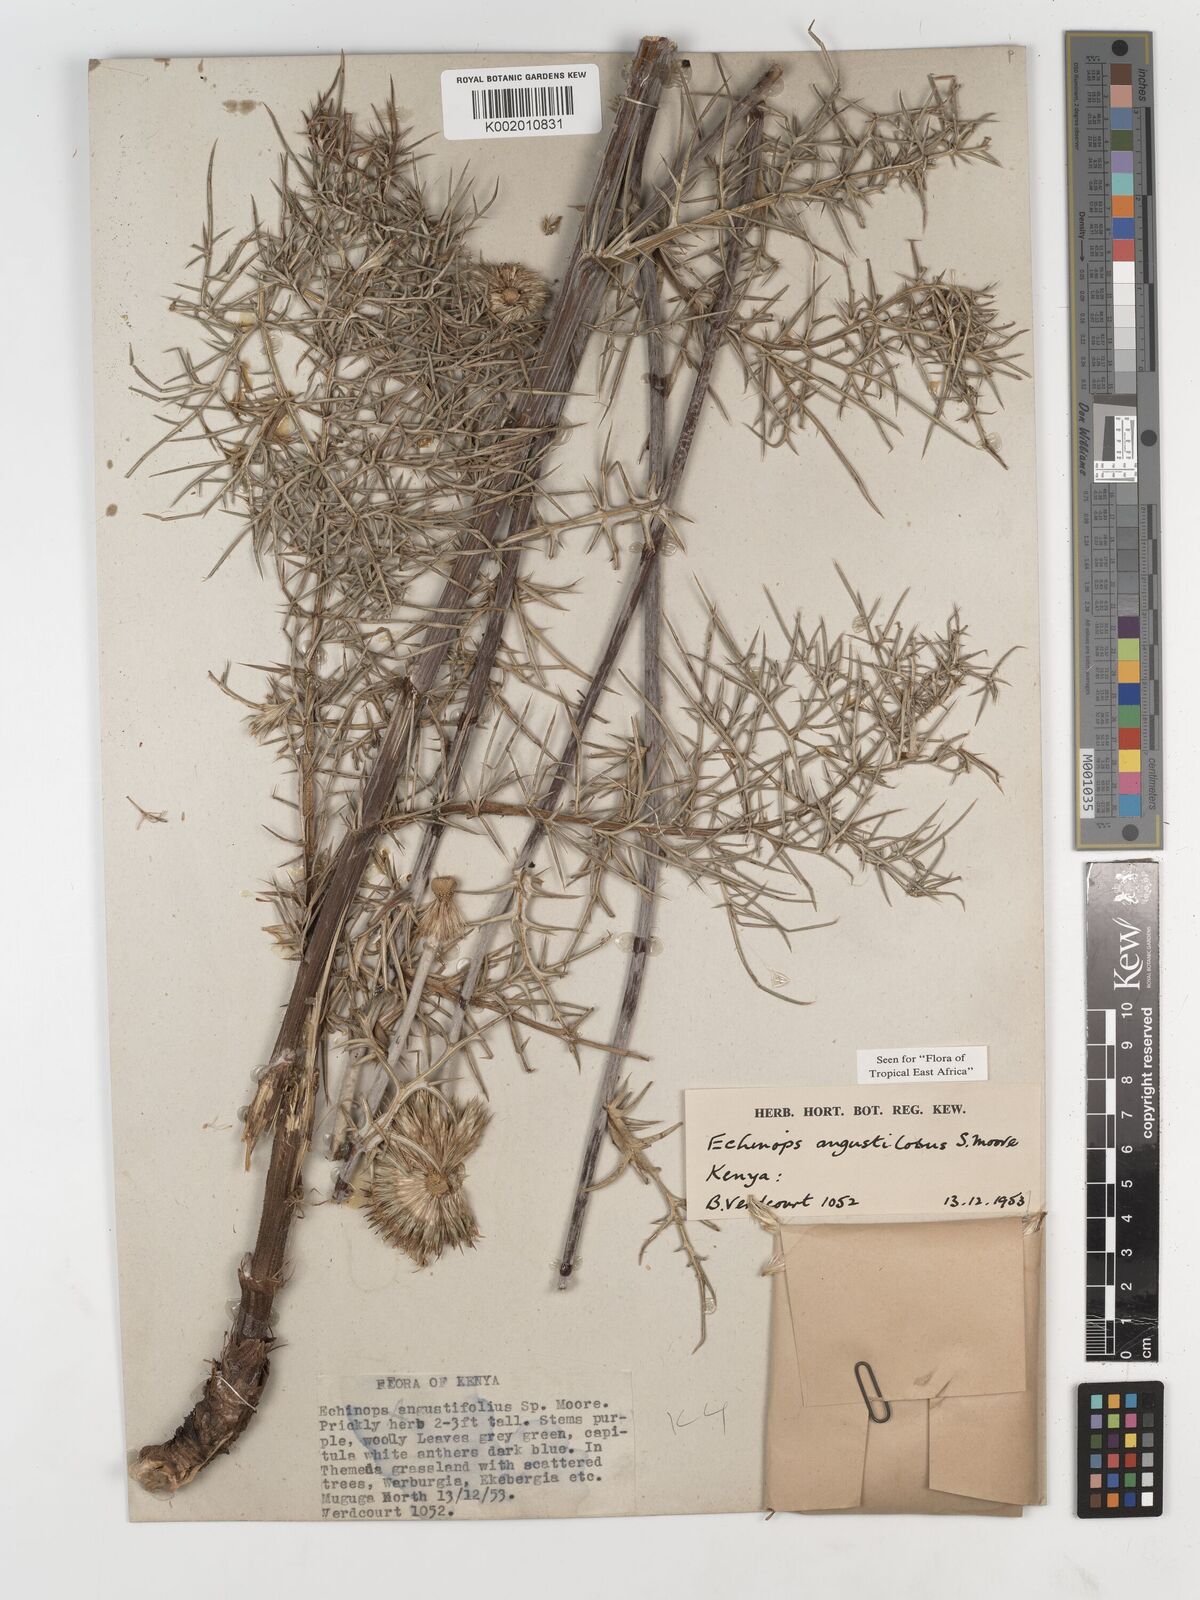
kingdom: Plantae
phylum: Tracheophyta
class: Magnoliopsida
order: Asterales
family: Asteraceae
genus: Echinops
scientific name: Echinops angustilobus
